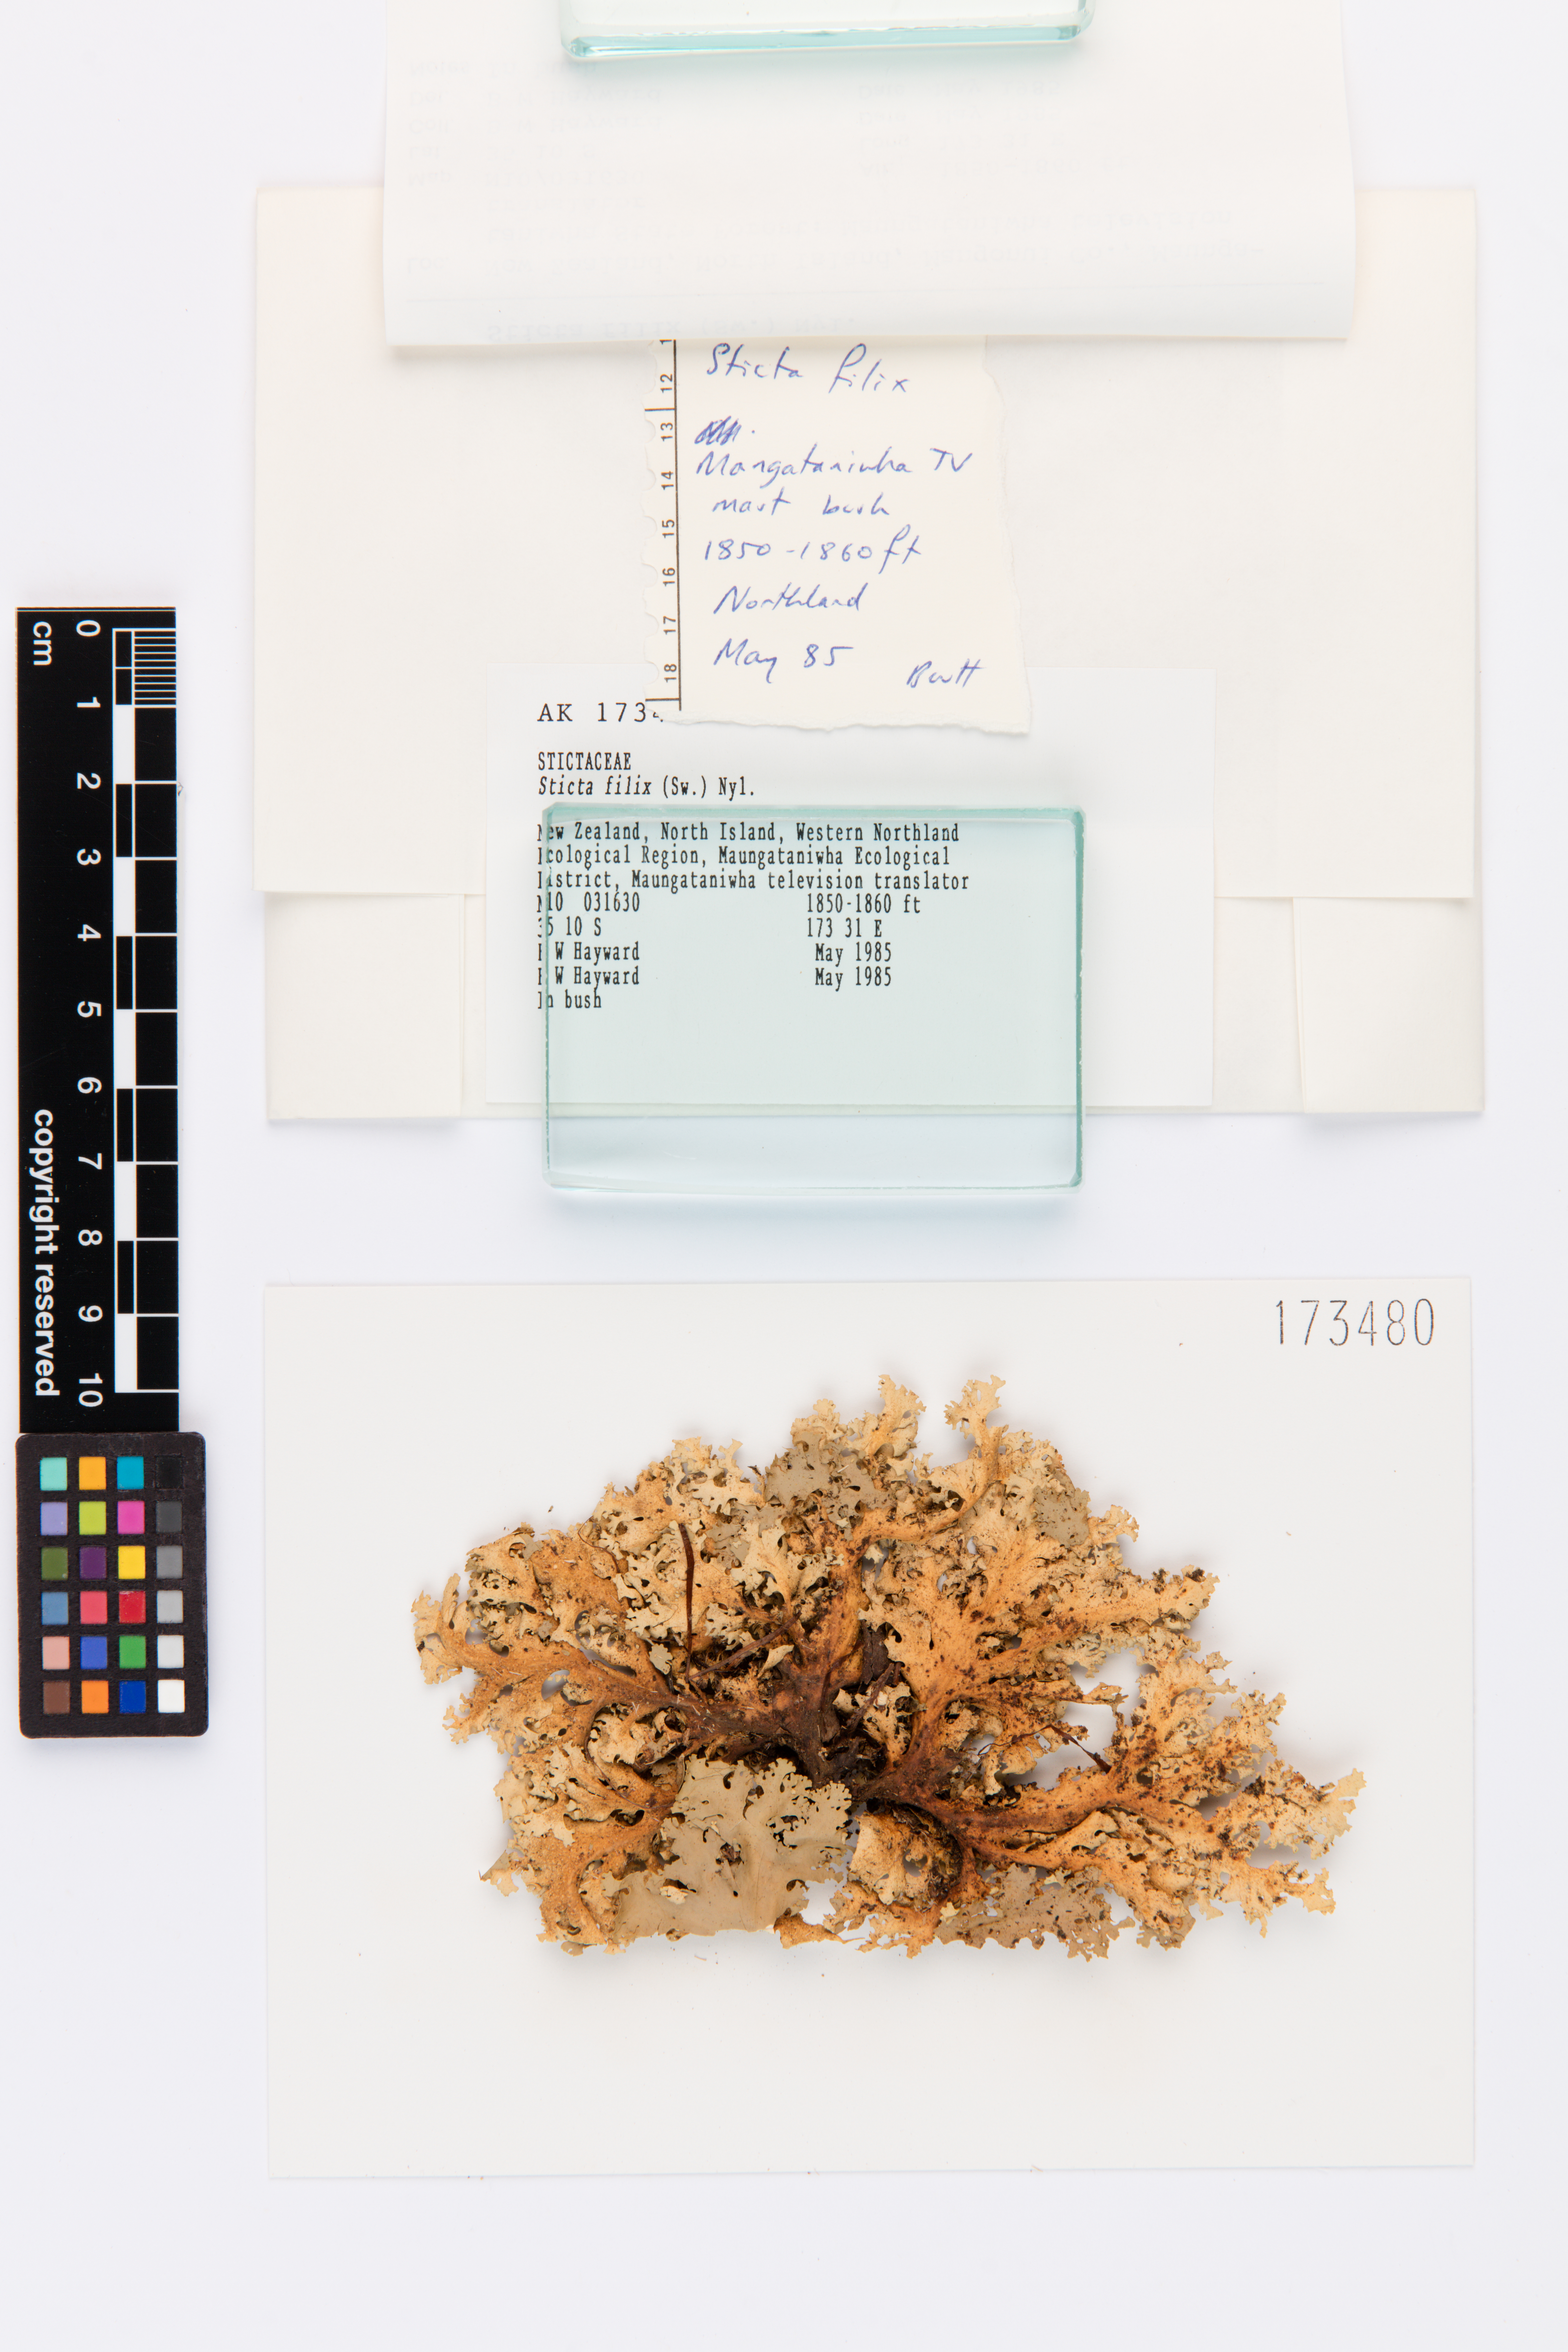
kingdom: Fungi
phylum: Ascomycota
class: Lecanoromycetes
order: Peltigerales
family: Lobariaceae
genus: Sticta
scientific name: Sticta filix
